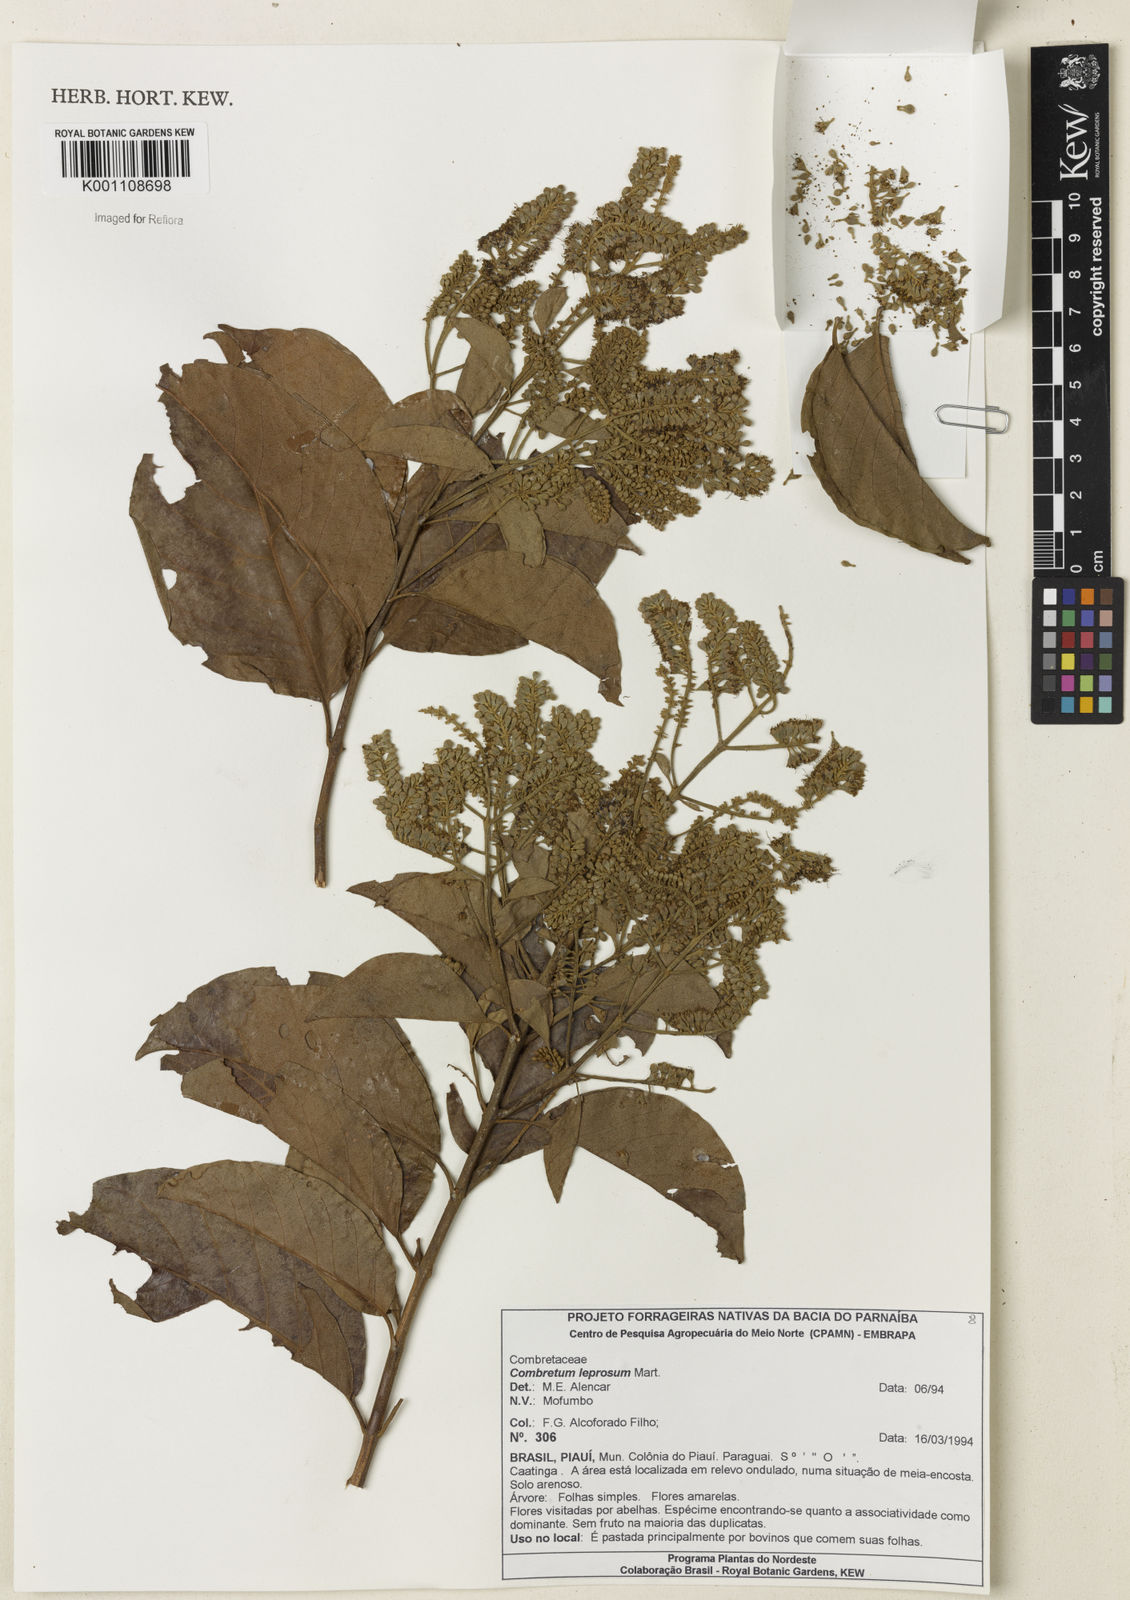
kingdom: Plantae
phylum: Tracheophyta
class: Magnoliopsida
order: Myrtales
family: Combretaceae
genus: Combretum
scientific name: Combretum leprosum
